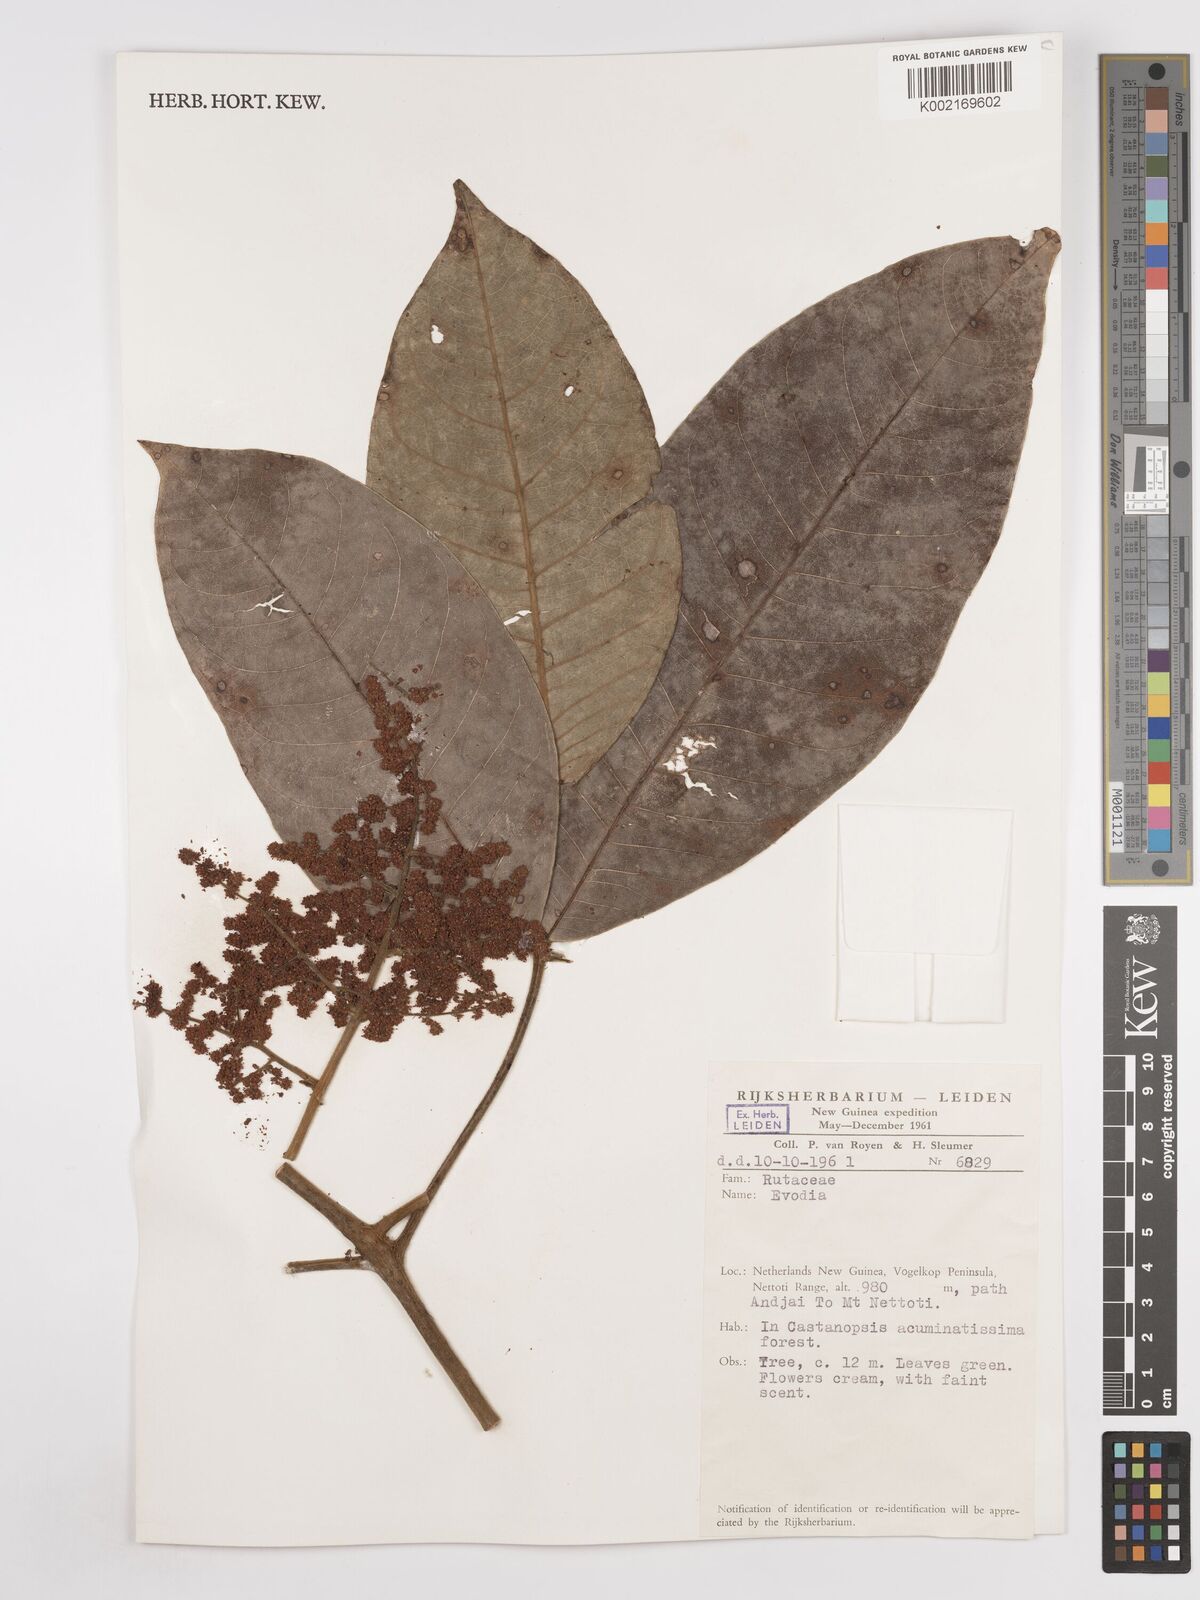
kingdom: Plantae
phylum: Tracheophyta
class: Magnoliopsida
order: Sapindales
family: Rutaceae
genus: Euodia
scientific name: Euodia
